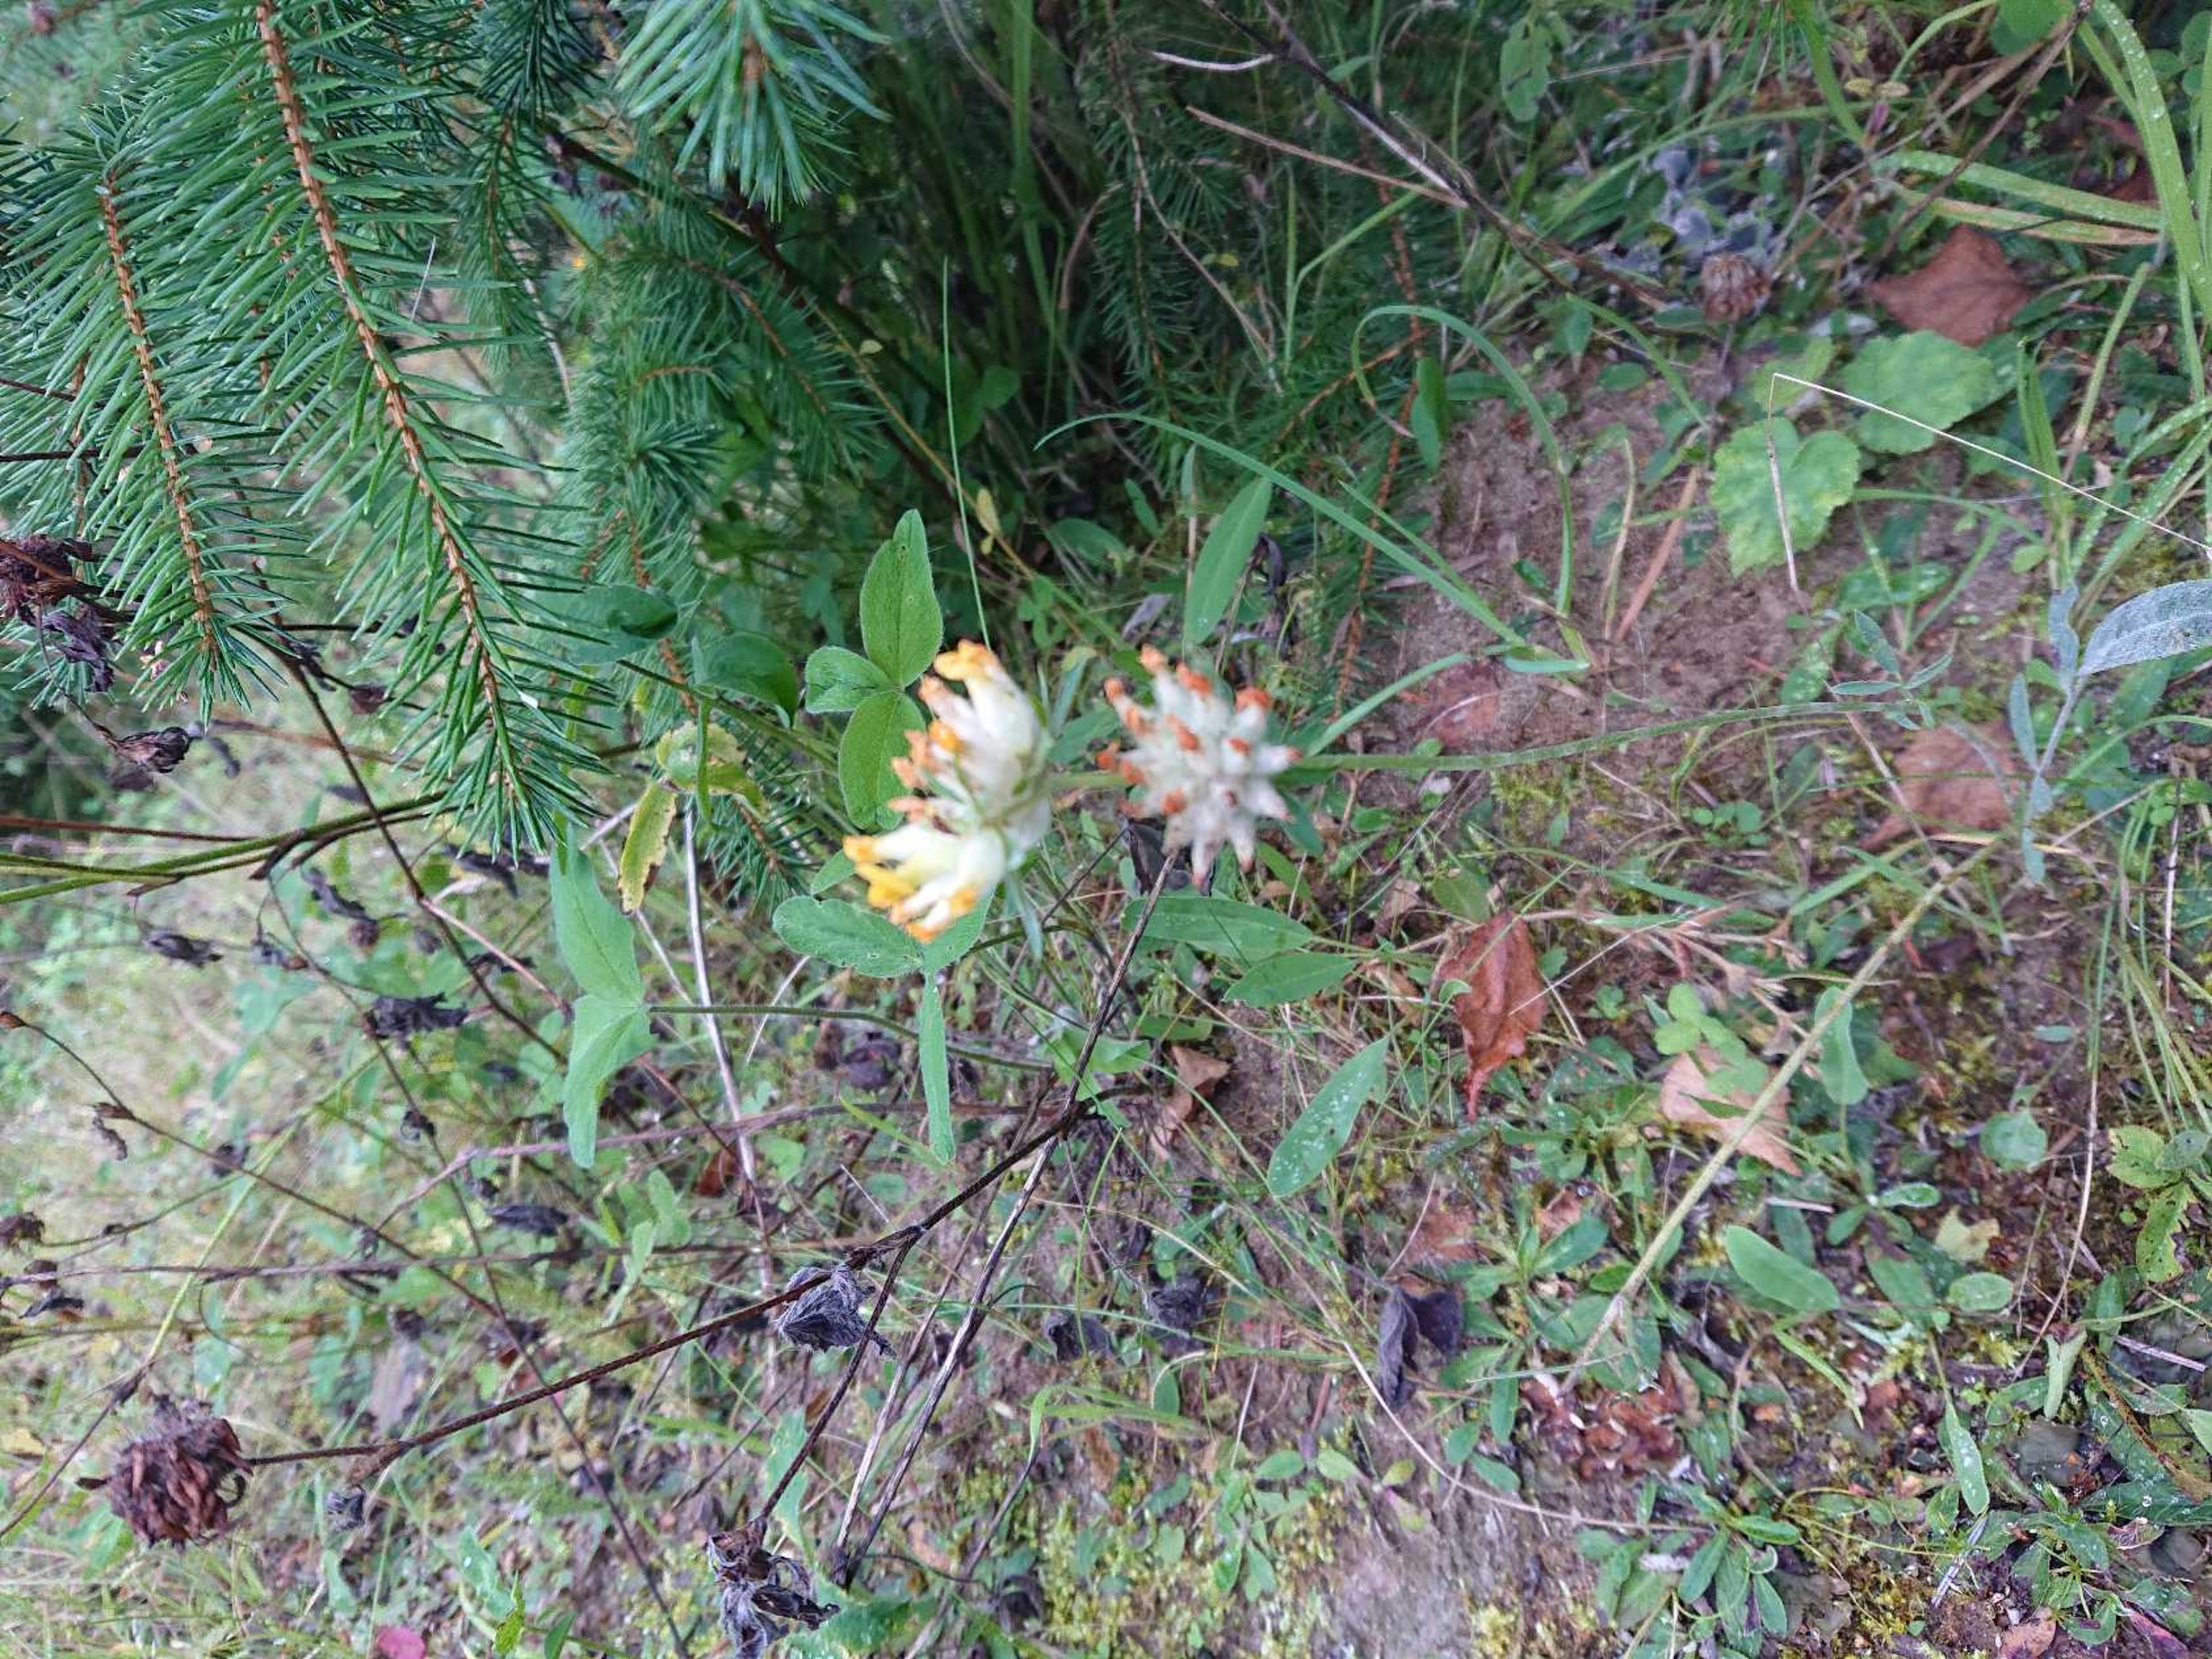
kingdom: Plantae
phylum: Tracheophyta
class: Magnoliopsida
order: Fabales
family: Fabaceae
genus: Anthyllis
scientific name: Anthyllis vulneraria
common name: Rundbælg
